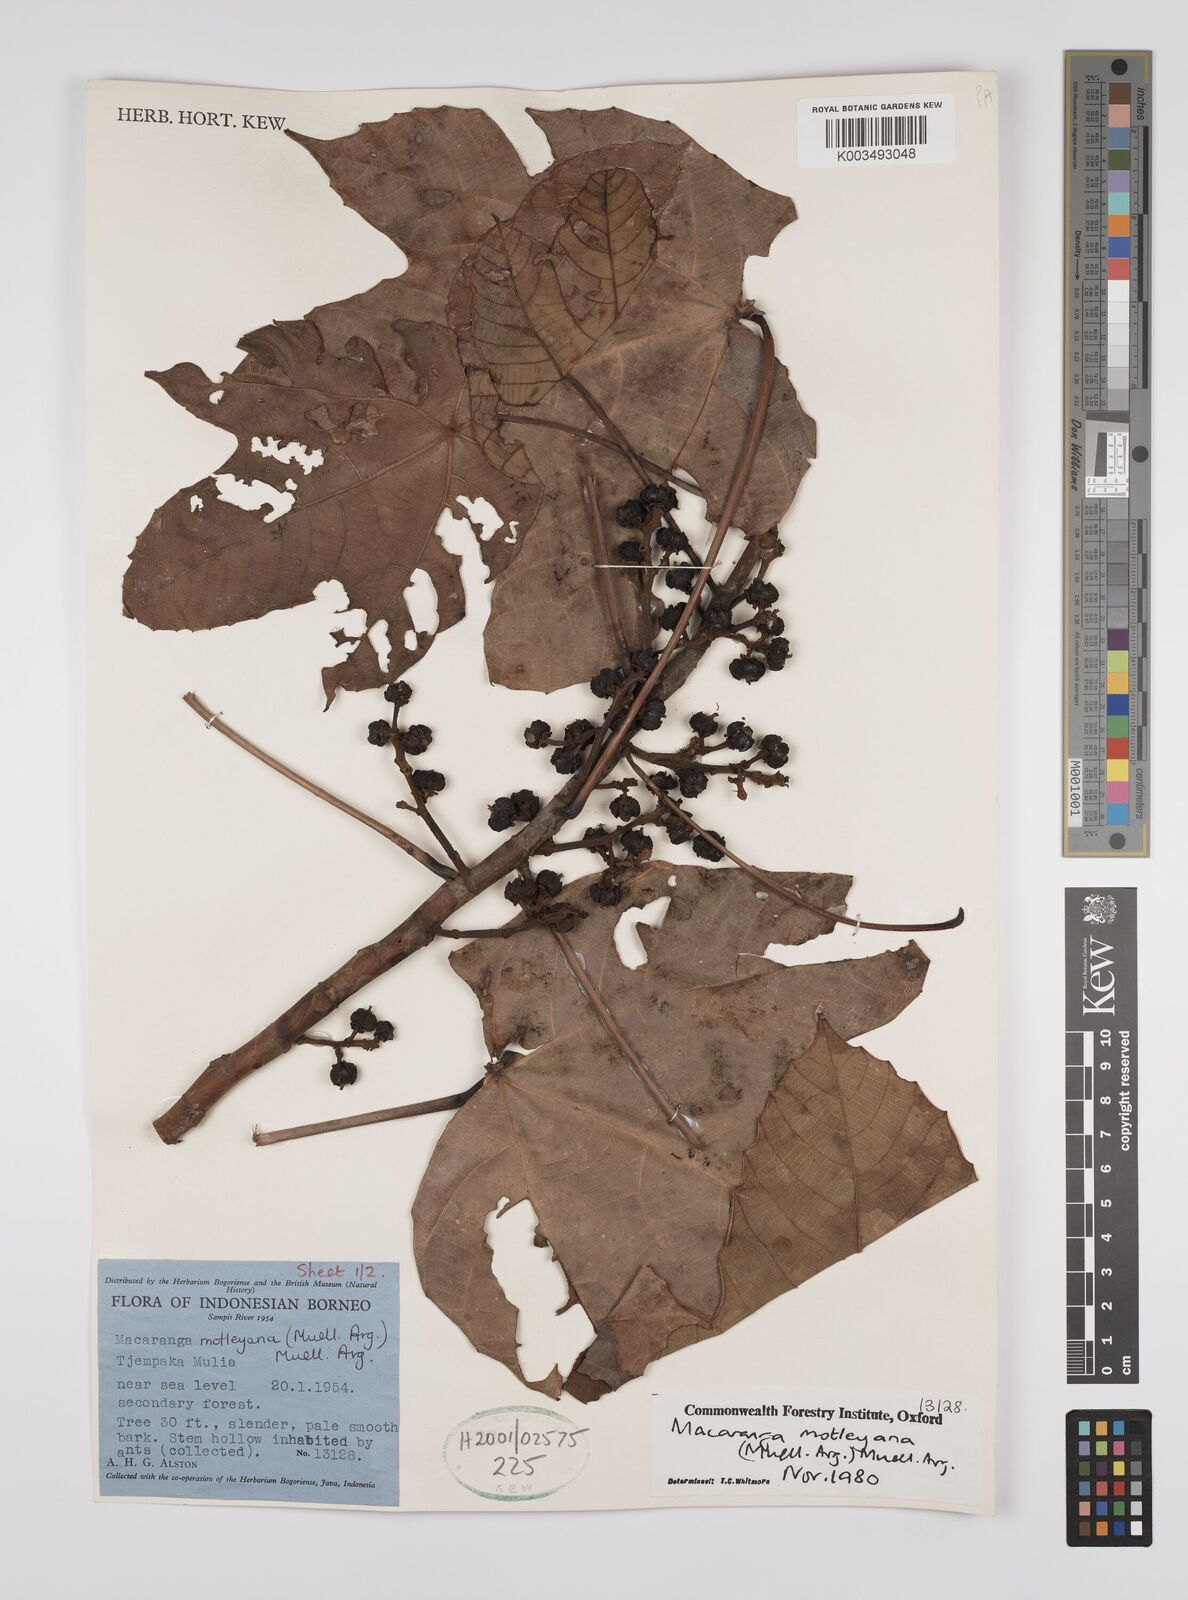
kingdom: Plantae
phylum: Tracheophyta
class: Magnoliopsida
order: Malpighiales
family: Euphorbiaceae
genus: Macaranga
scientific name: Macaranga motleyana
